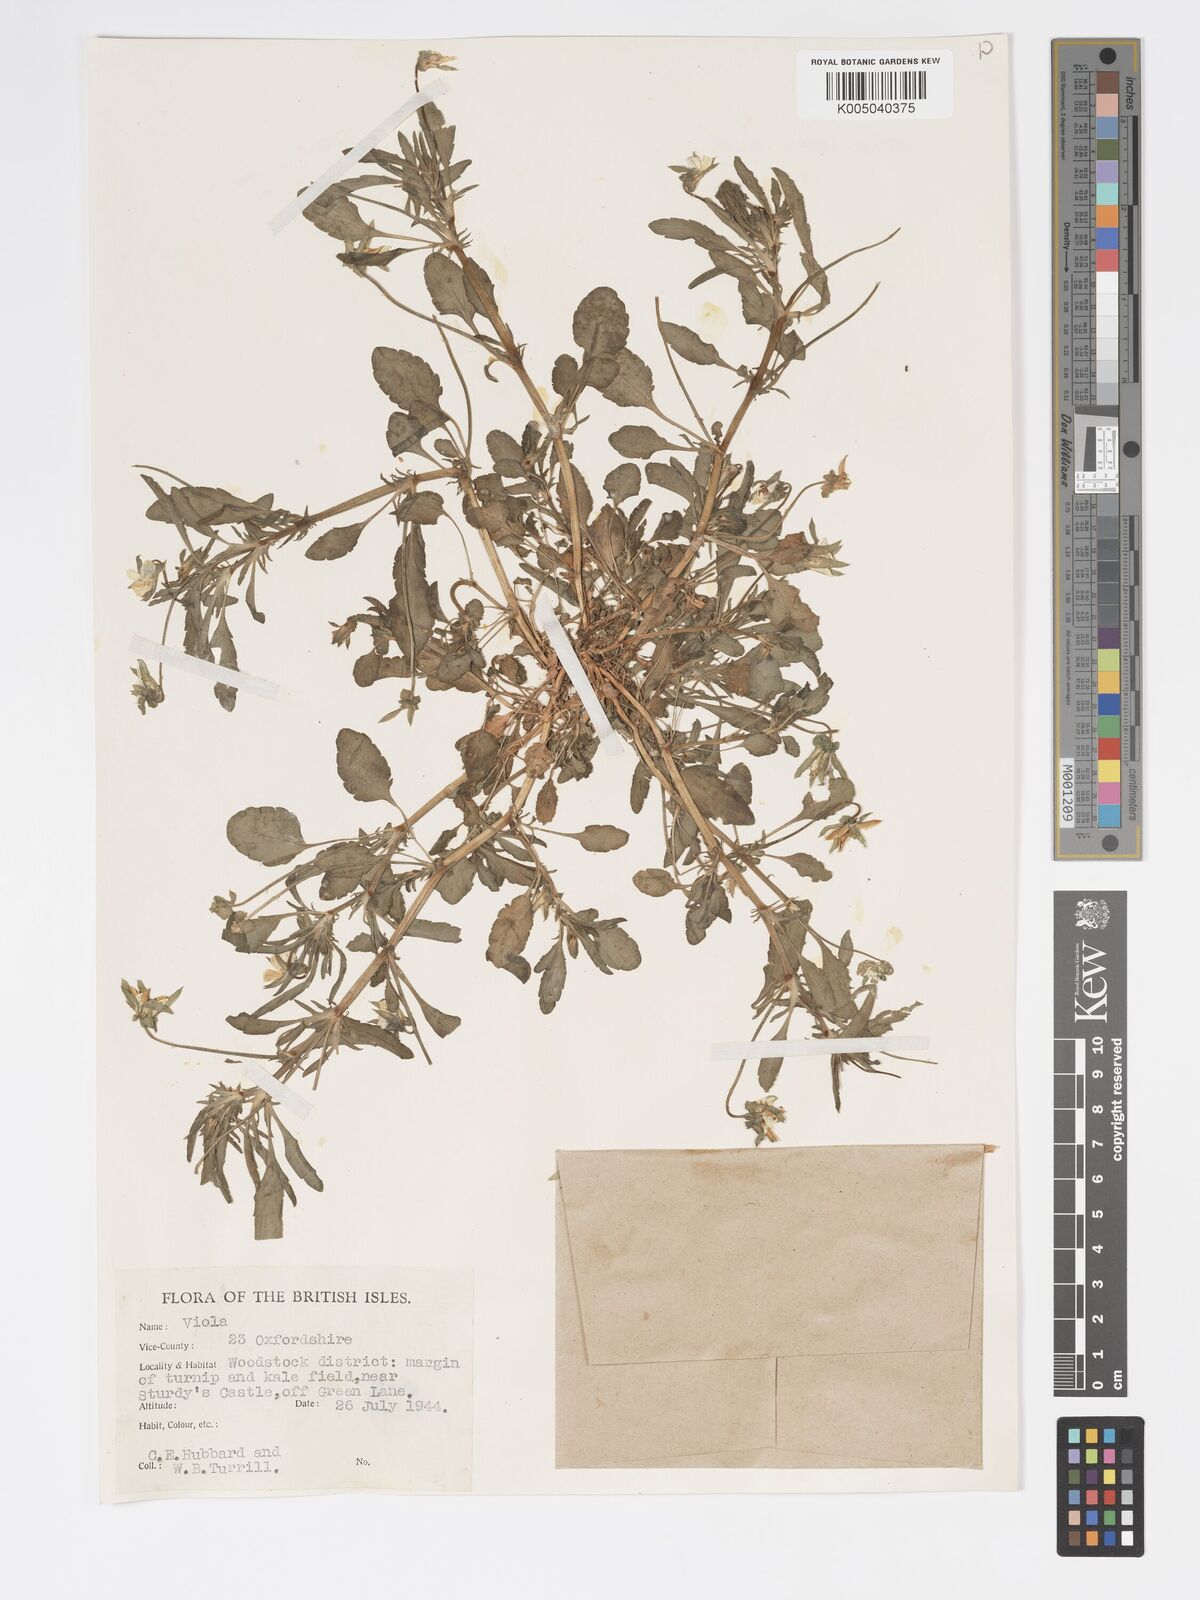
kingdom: Plantae
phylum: Tracheophyta
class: Magnoliopsida
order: Malpighiales
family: Violaceae
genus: Viola
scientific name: Viola arvensis
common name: Field pansy
